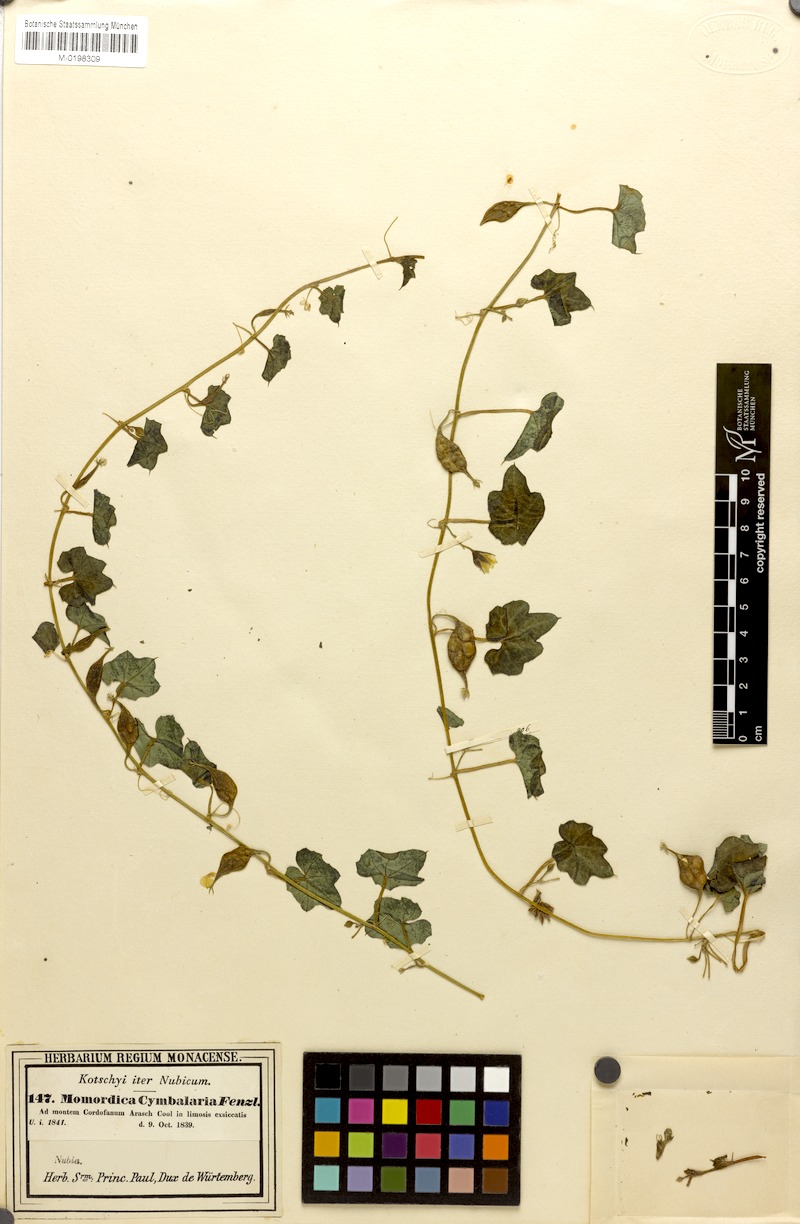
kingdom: Plantae
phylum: Tracheophyta
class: Magnoliopsida
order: Cucurbitales
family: Cucurbitaceae
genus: Momordica
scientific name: Momordica cymbalaria
